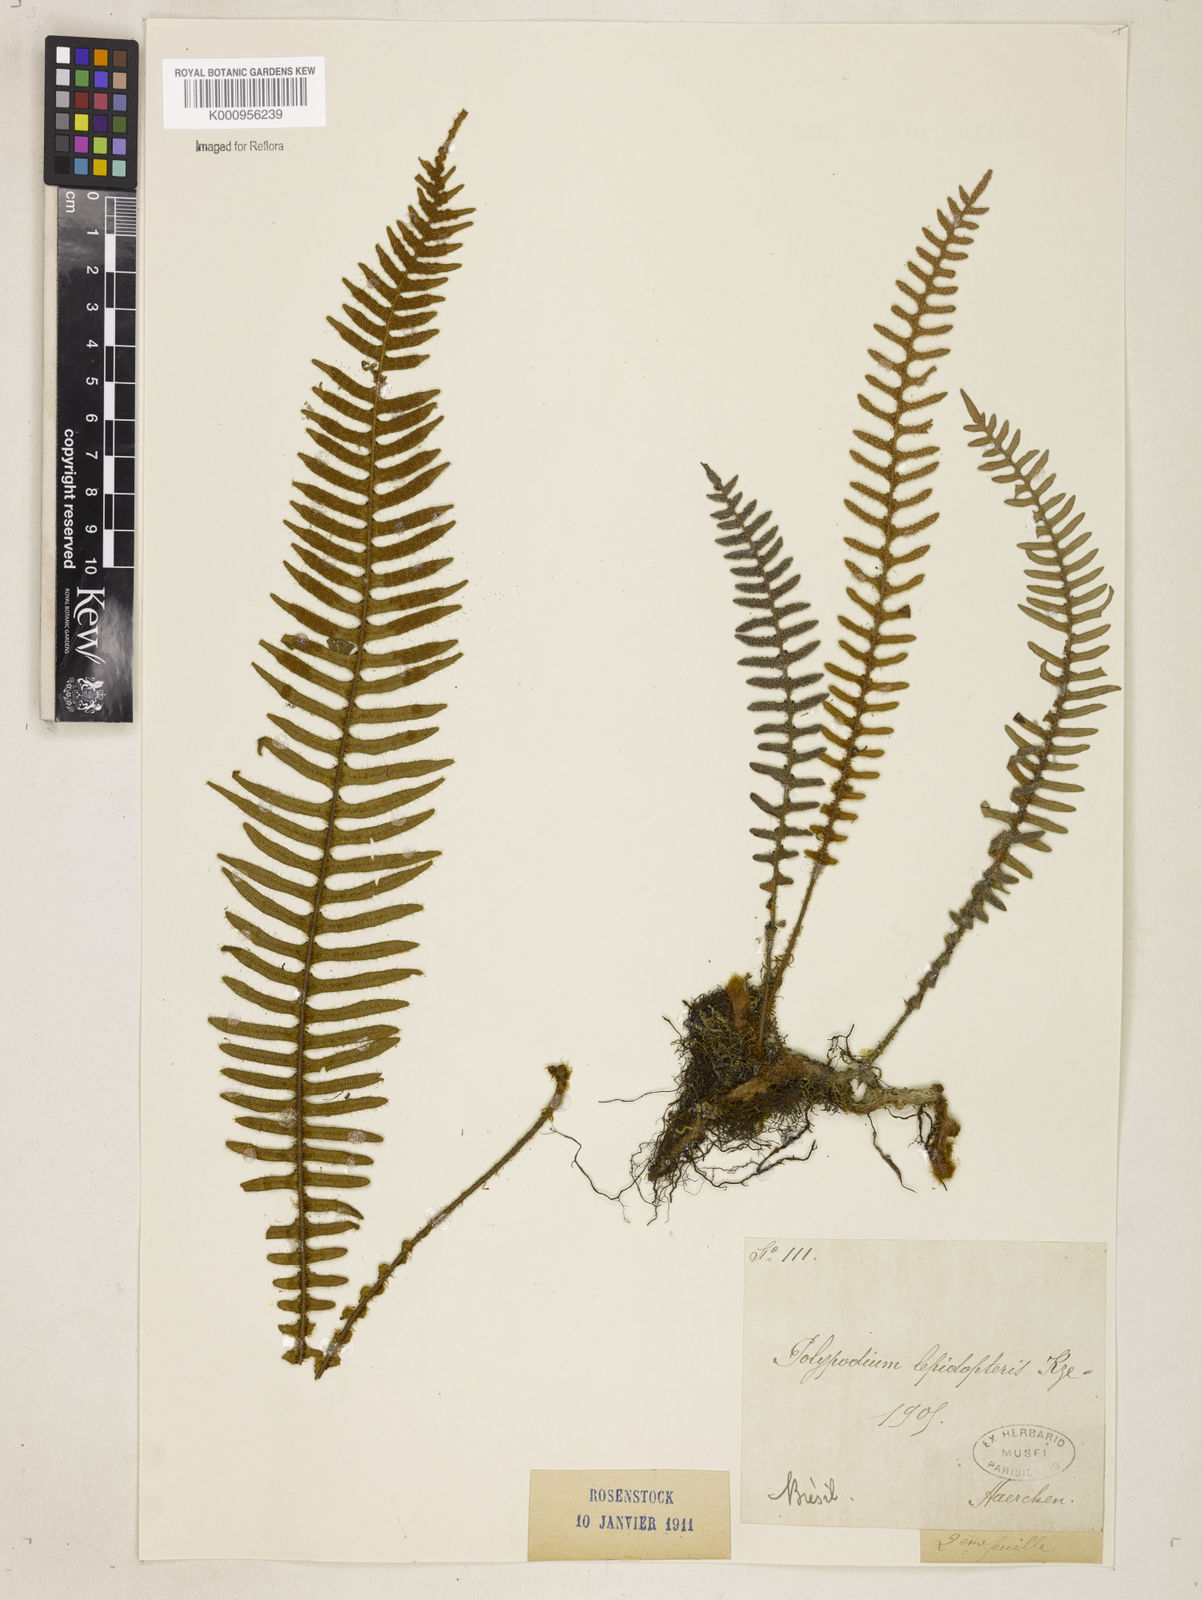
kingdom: Plantae
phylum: Tracheophyta
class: Polypodiopsida
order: Polypodiales
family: Polypodiaceae
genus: Pleopeltis
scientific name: Pleopeltis hirsutissima
